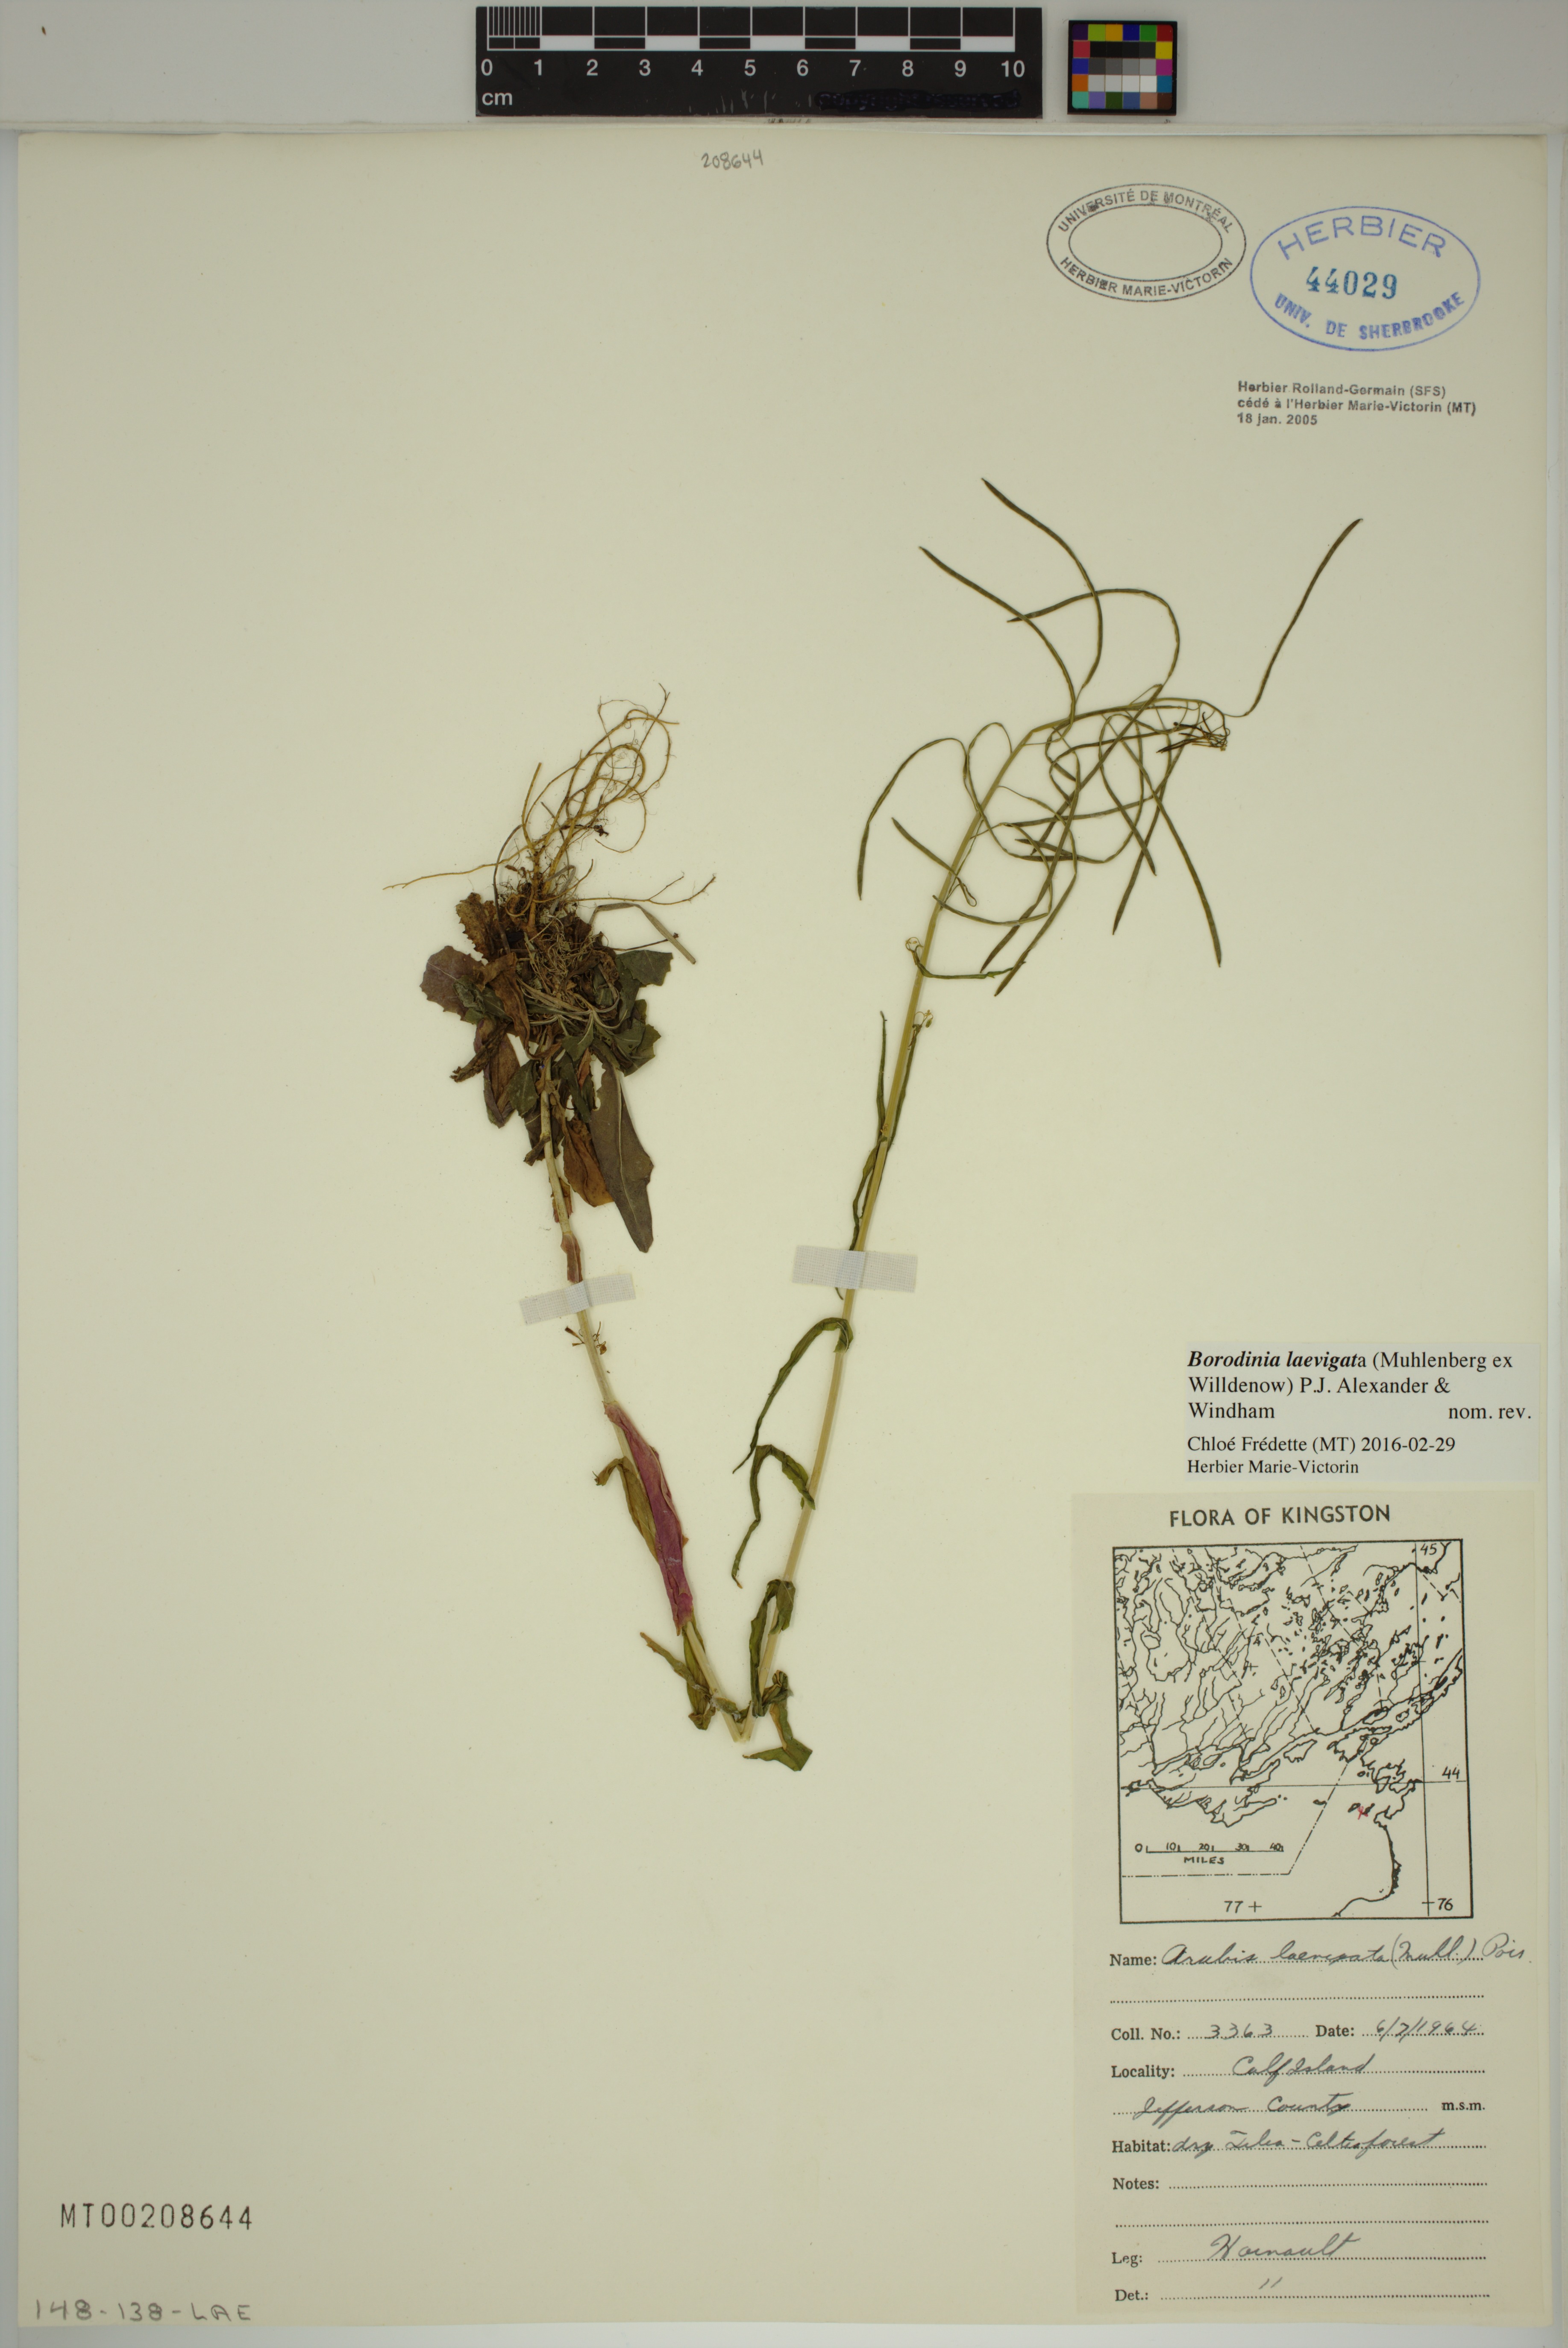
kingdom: Plantae
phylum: Tracheophyta
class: Magnoliopsida
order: Brassicales
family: Brassicaceae
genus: Borodinia
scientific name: Borodinia laevigata
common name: Smooth rockcress
